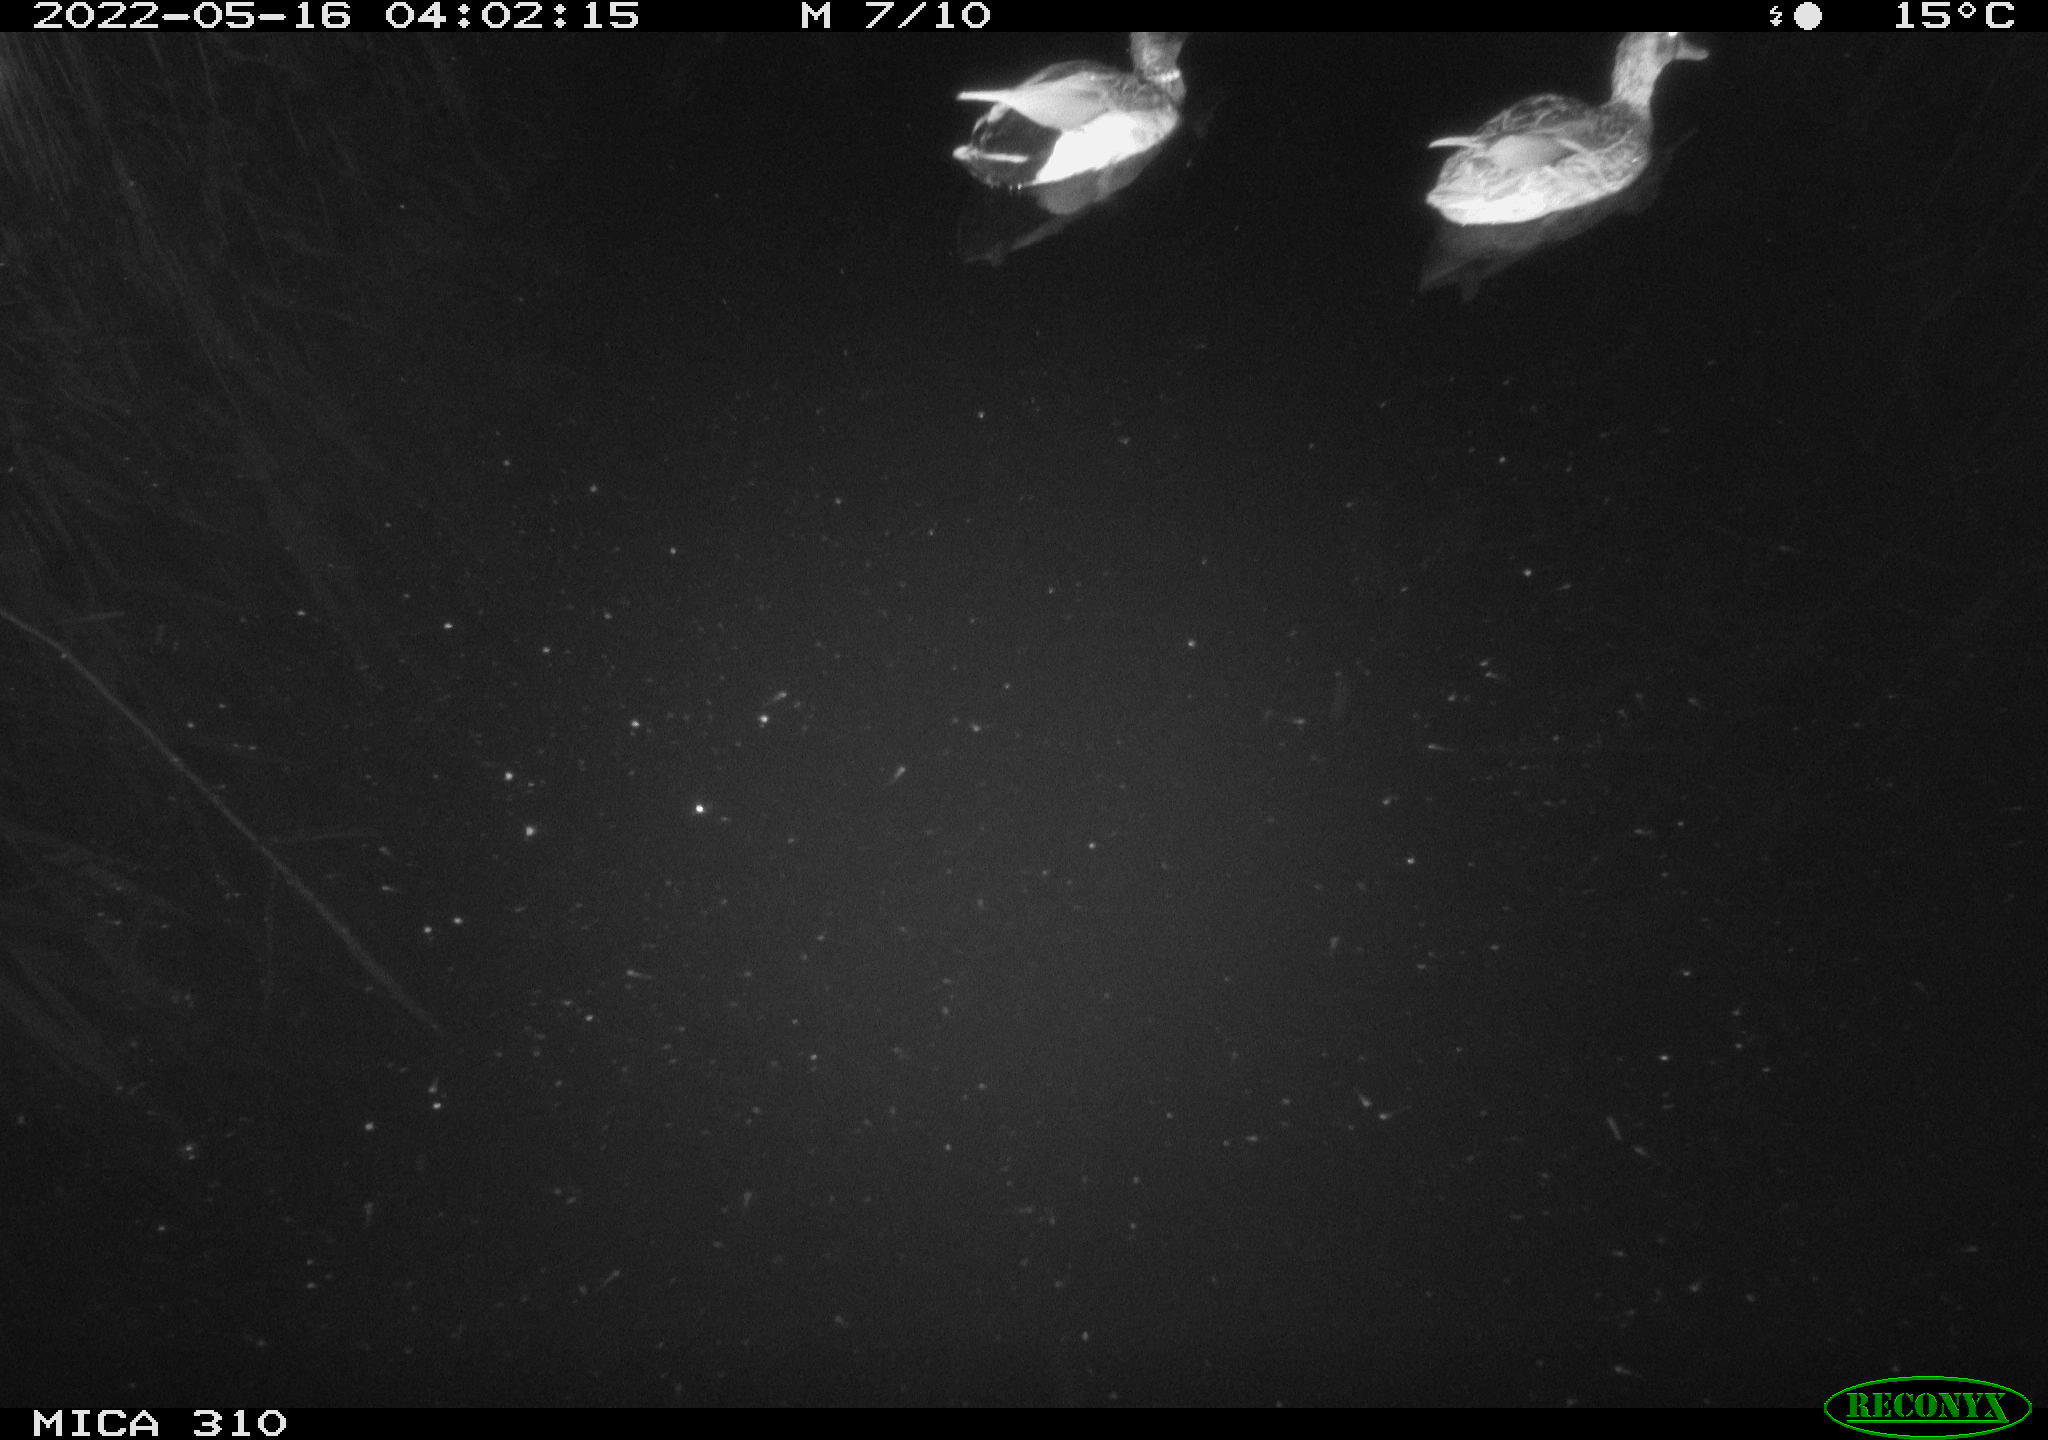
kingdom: Animalia
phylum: Chordata
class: Aves
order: Anseriformes
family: Anatidae
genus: Anas
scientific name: Anas platyrhynchos
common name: Mallard
